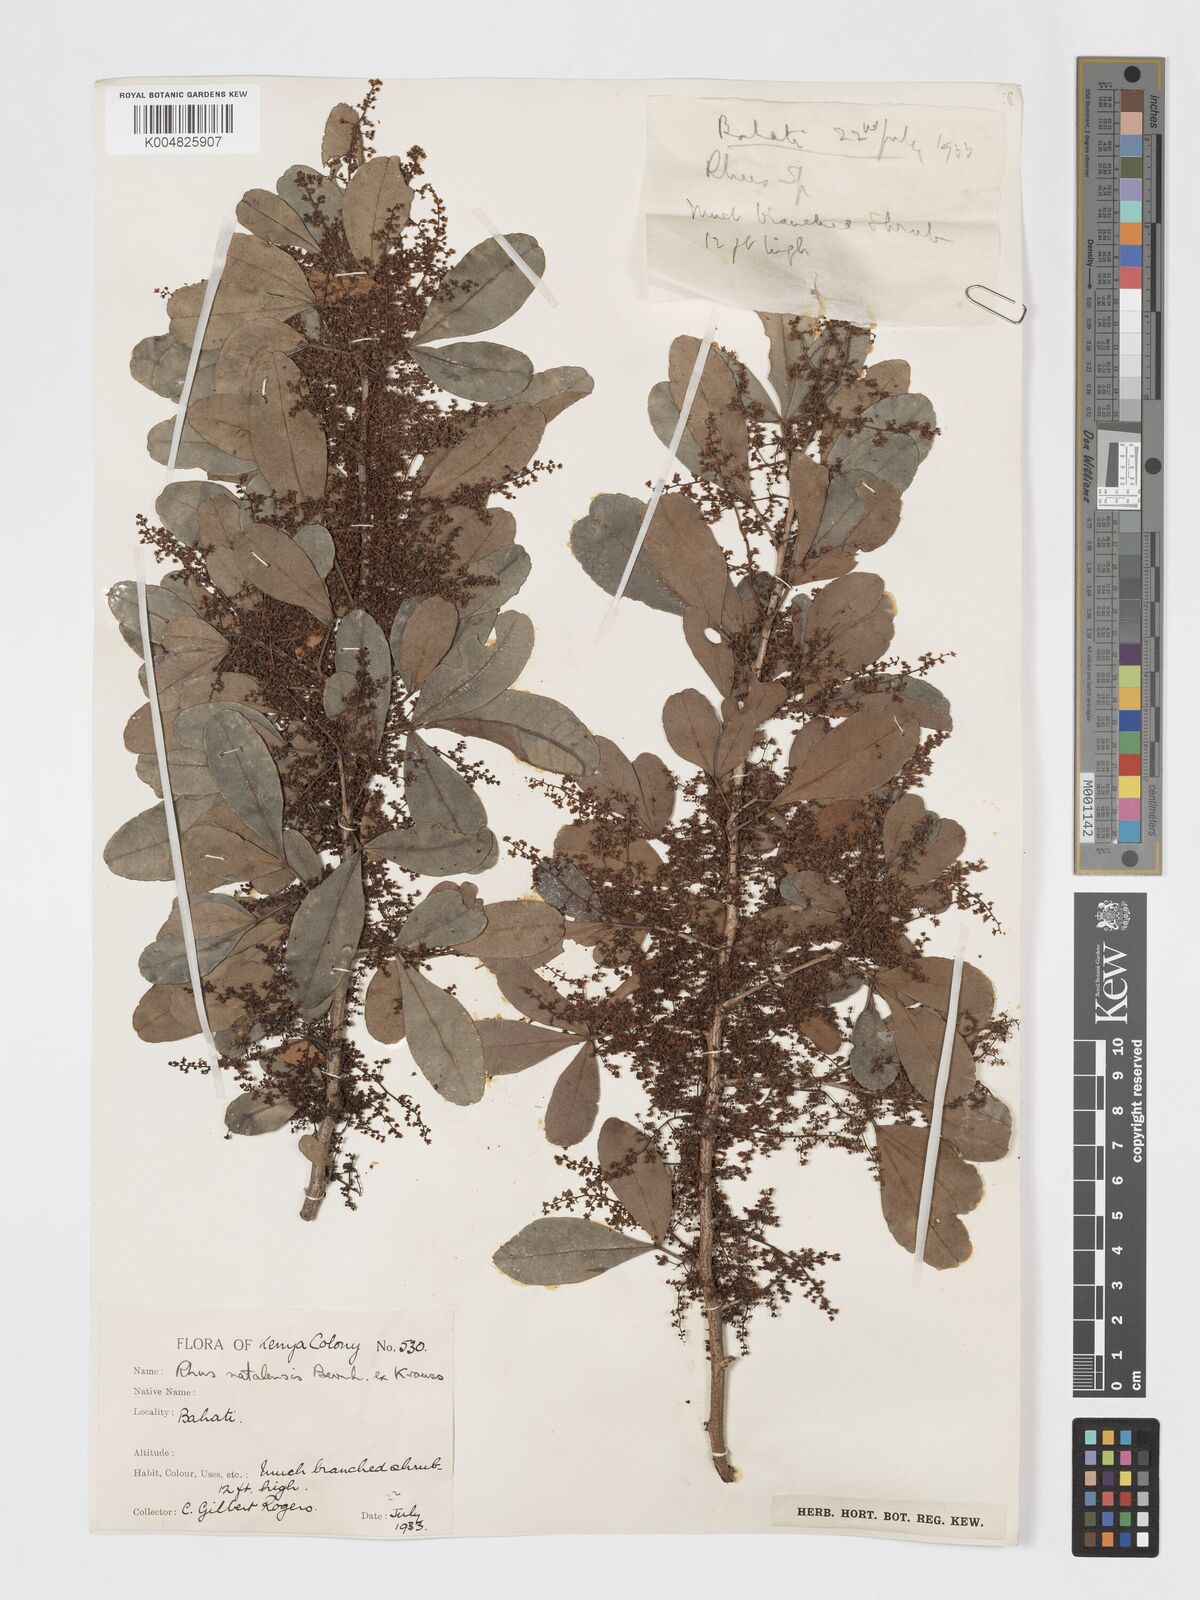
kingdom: Plantae
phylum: Tracheophyta
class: Magnoliopsida
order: Sapindales
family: Anacardiaceae
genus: Searsia
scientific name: Searsia natalensis
